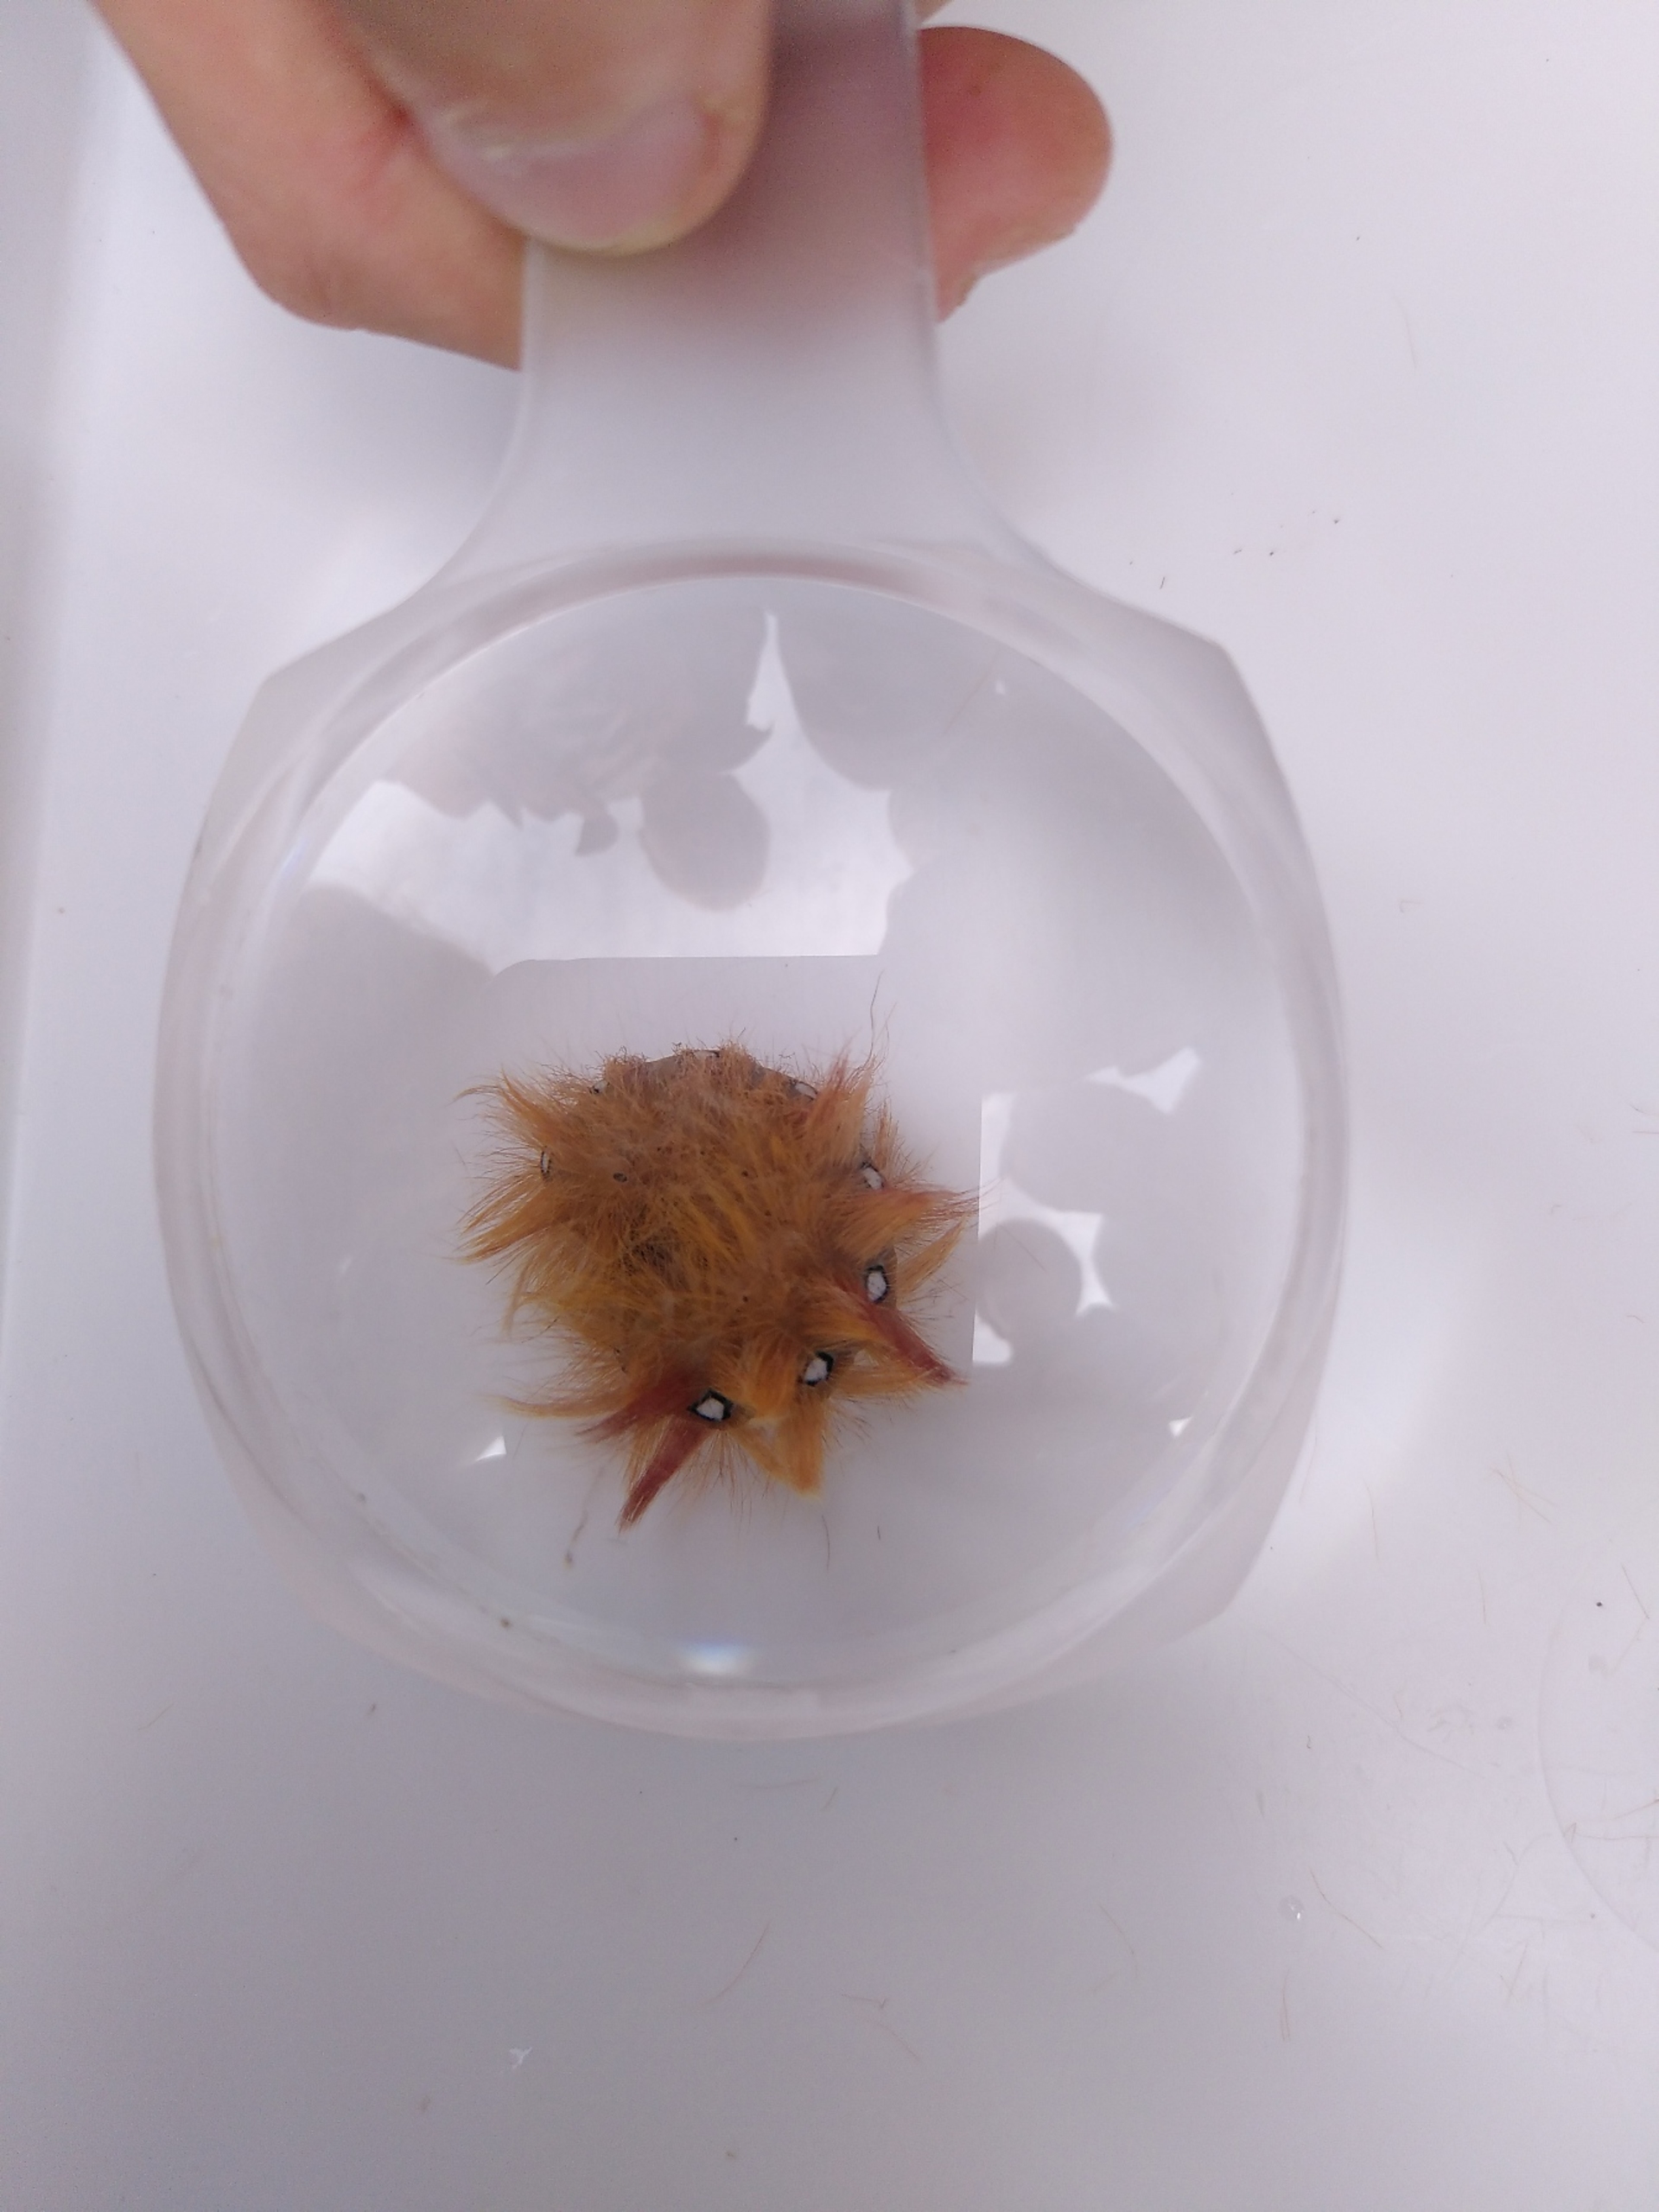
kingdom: Animalia
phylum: Arthropoda
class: Insecta
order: Lepidoptera
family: Noctuidae
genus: Acronicta
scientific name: Acronicta aceris
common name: Ahornugle
